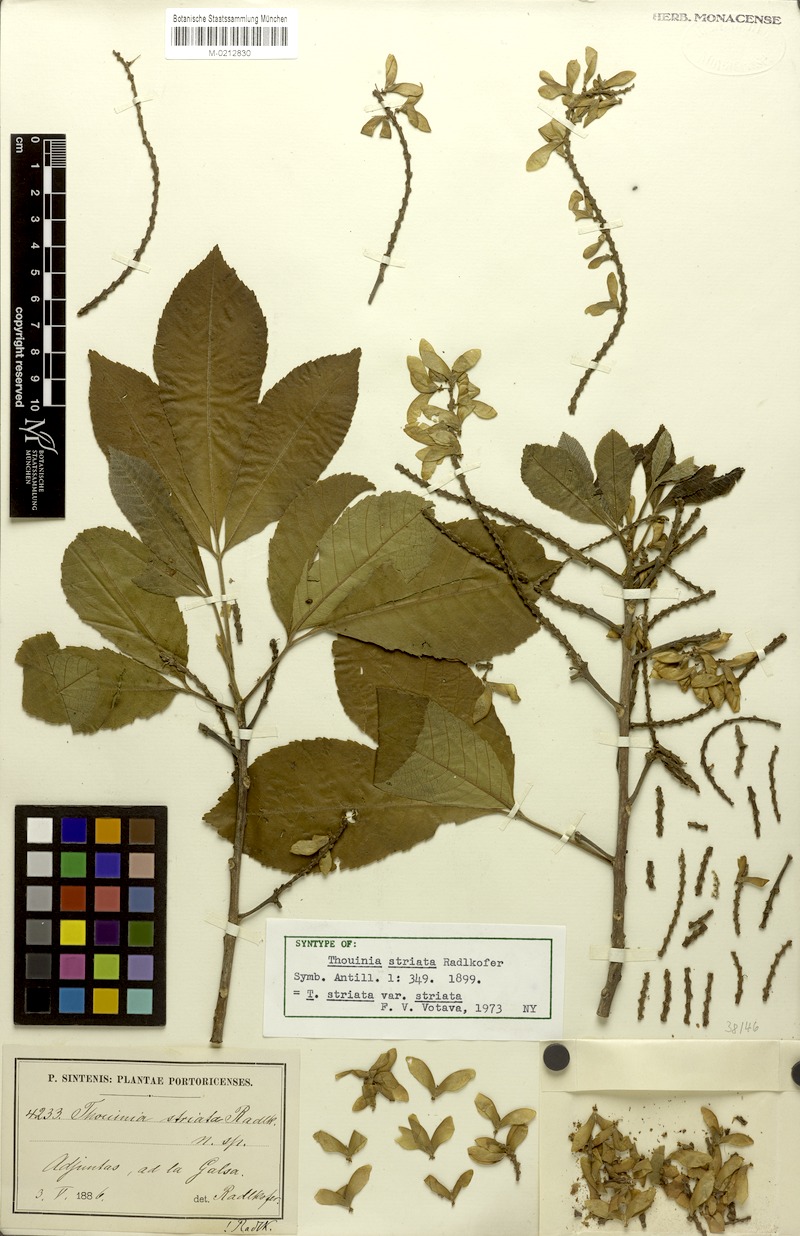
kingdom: Plantae
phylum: Tracheophyta
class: Magnoliopsida
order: Sapindales
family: Sapindaceae
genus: Thouinia
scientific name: Thouinia striata
